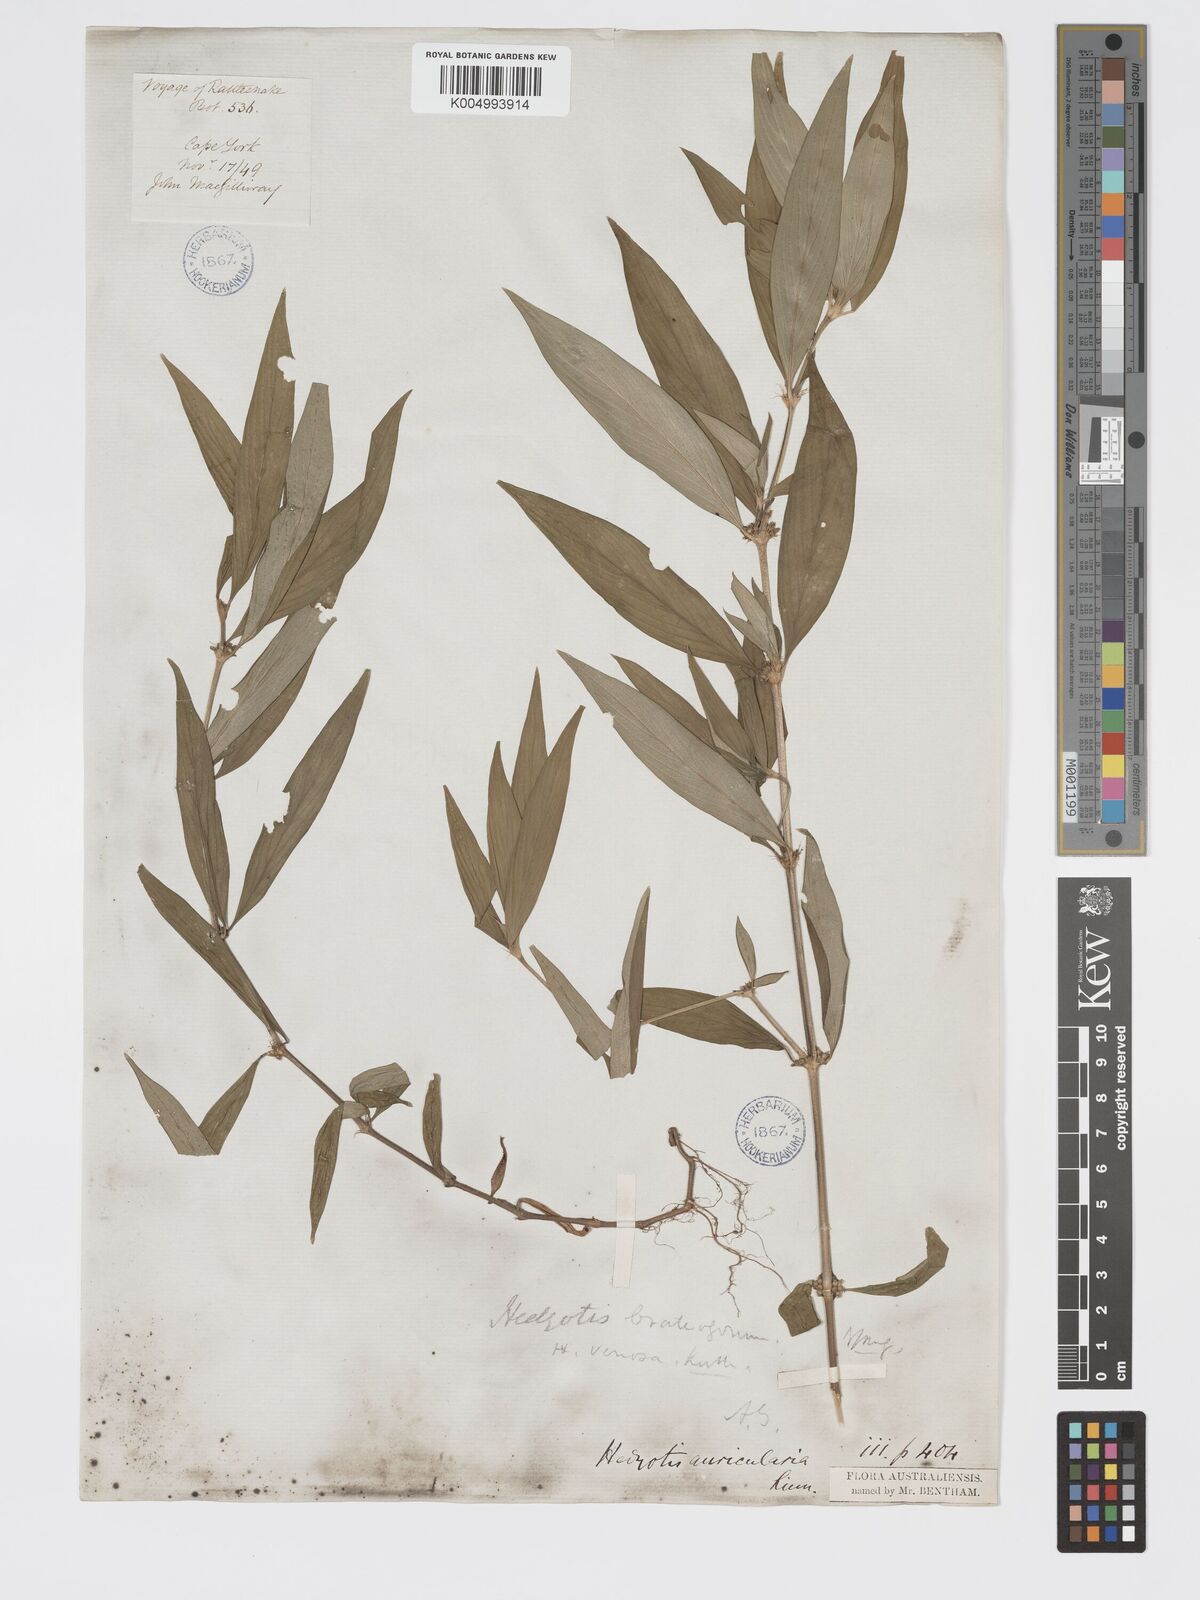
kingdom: Plantae
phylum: Tracheophyta
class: Magnoliopsida
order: Gentianales
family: Rubiaceae
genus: Exallage
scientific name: Exallage lapeyrousei
